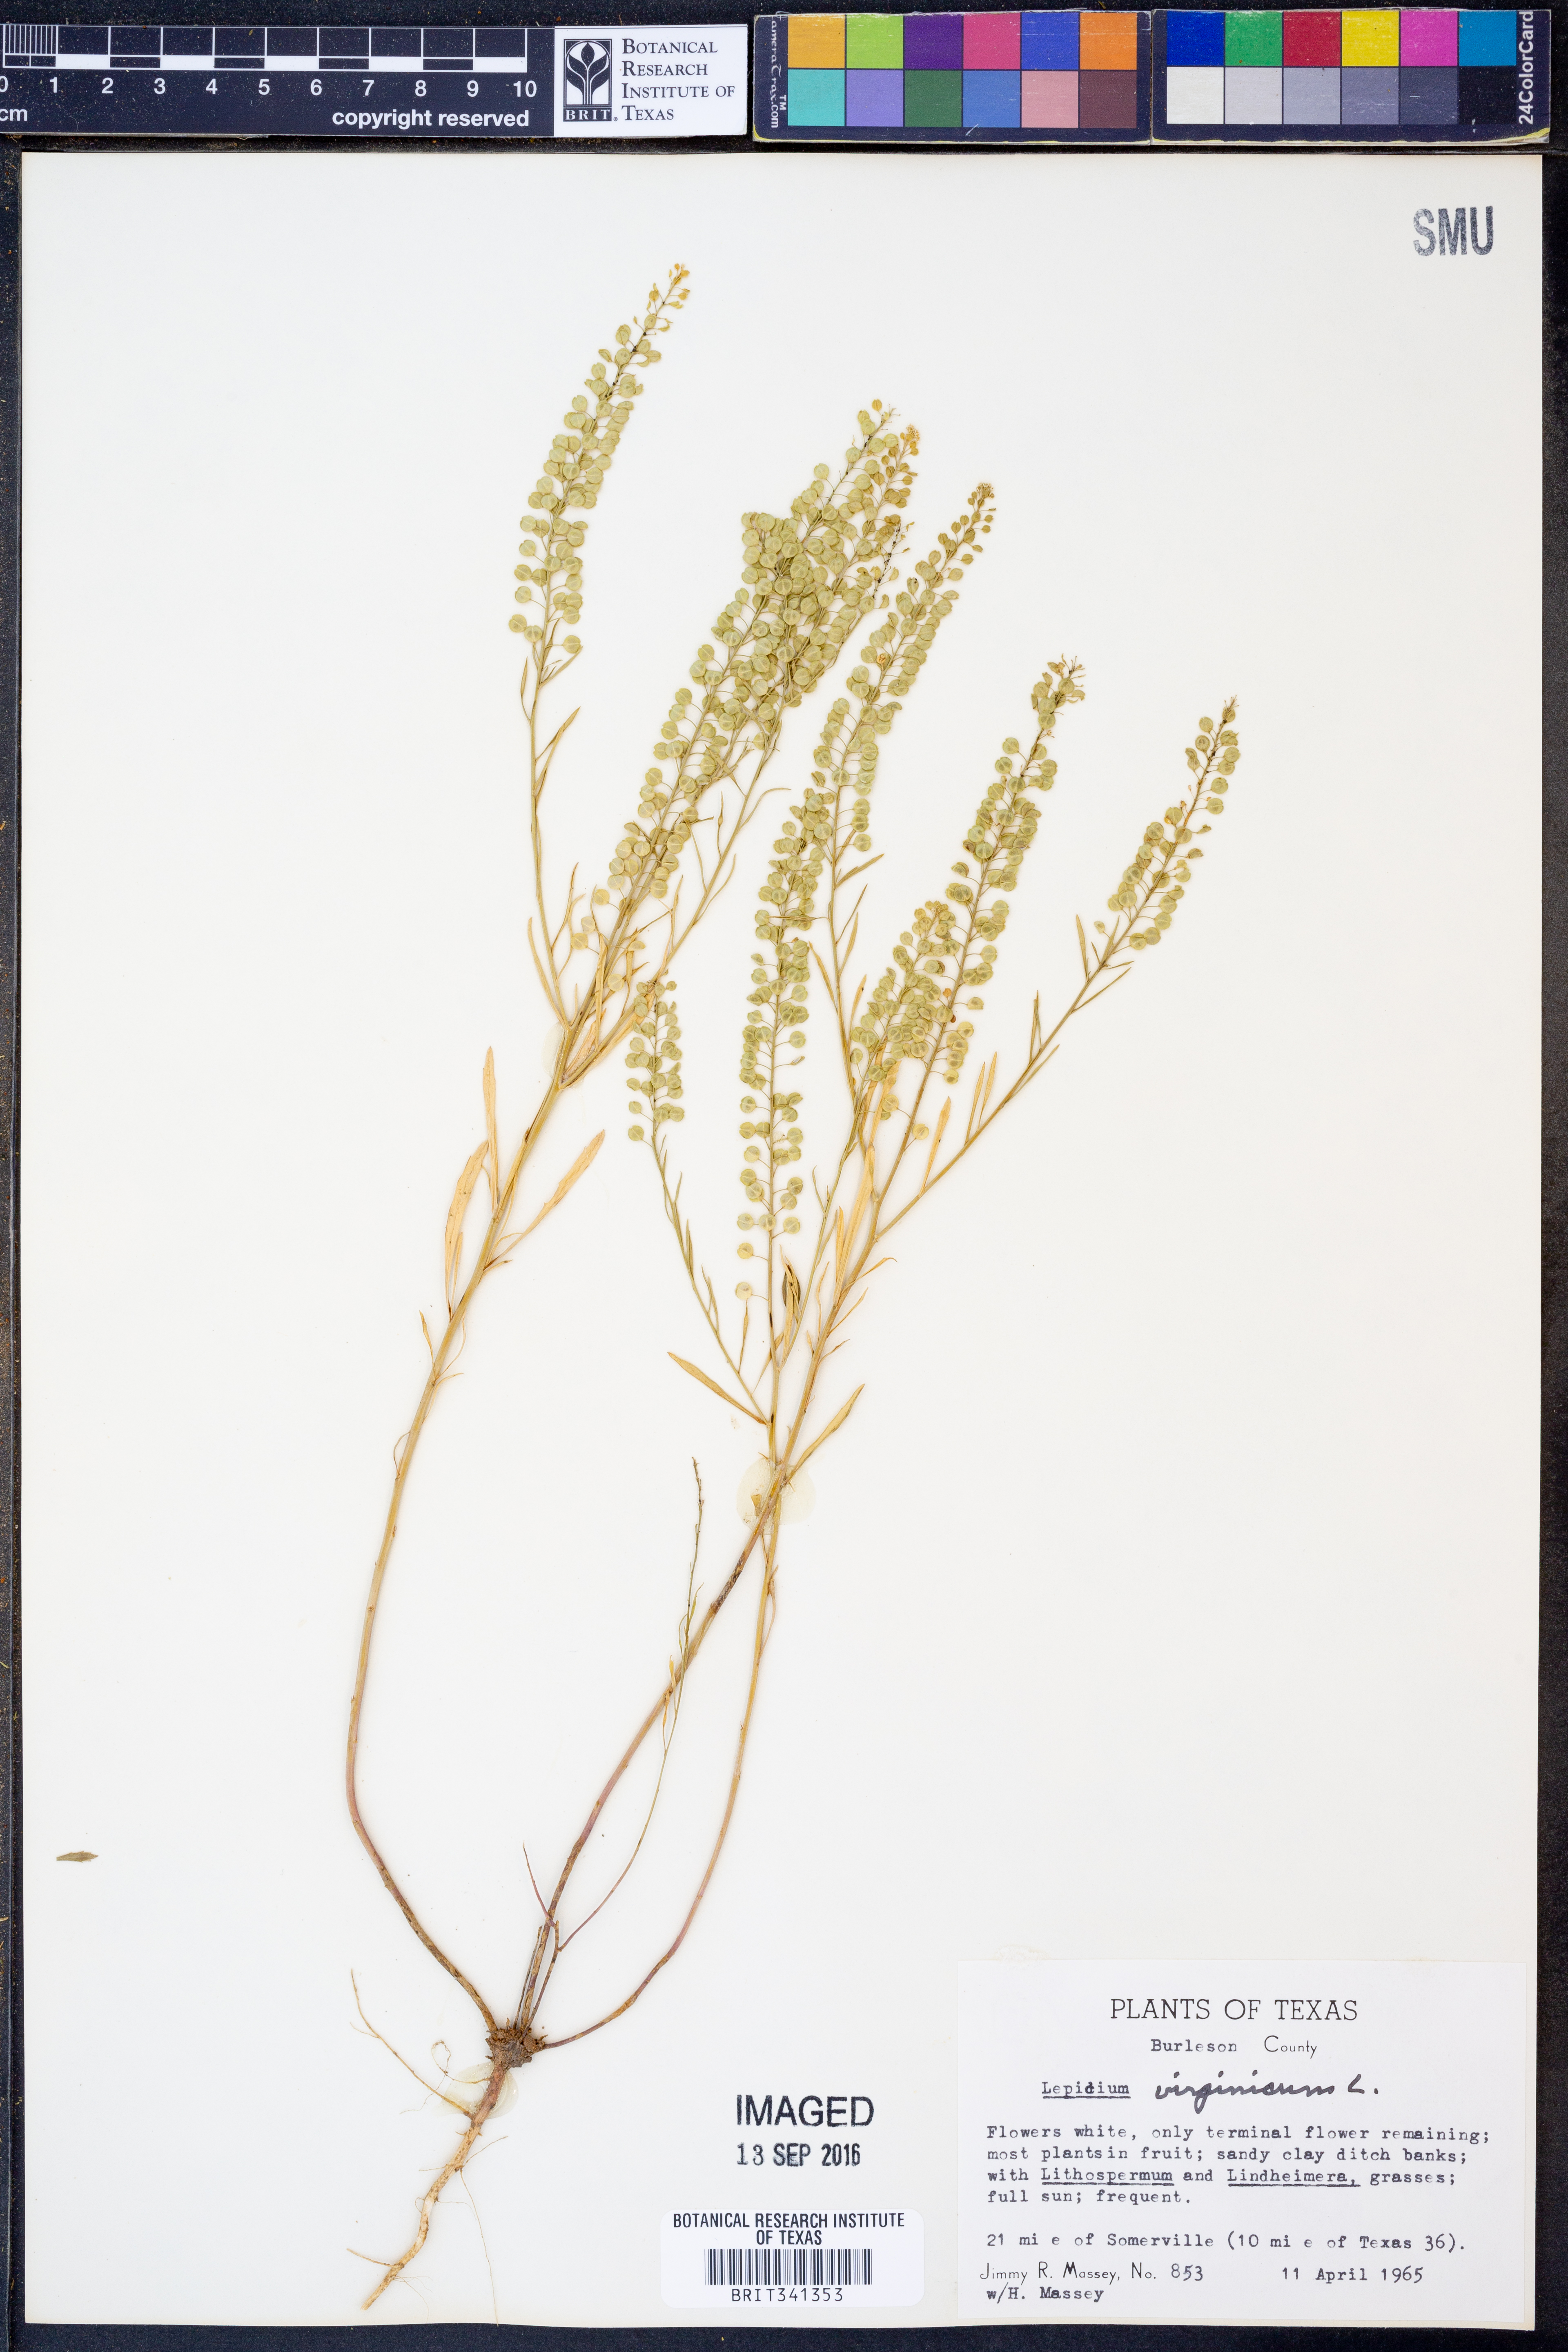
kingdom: Plantae
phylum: Tracheophyta
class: Magnoliopsida
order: Brassicales
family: Brassicaceae
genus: Lepidium
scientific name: Lepidium virginicum
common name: Least pepperwort
